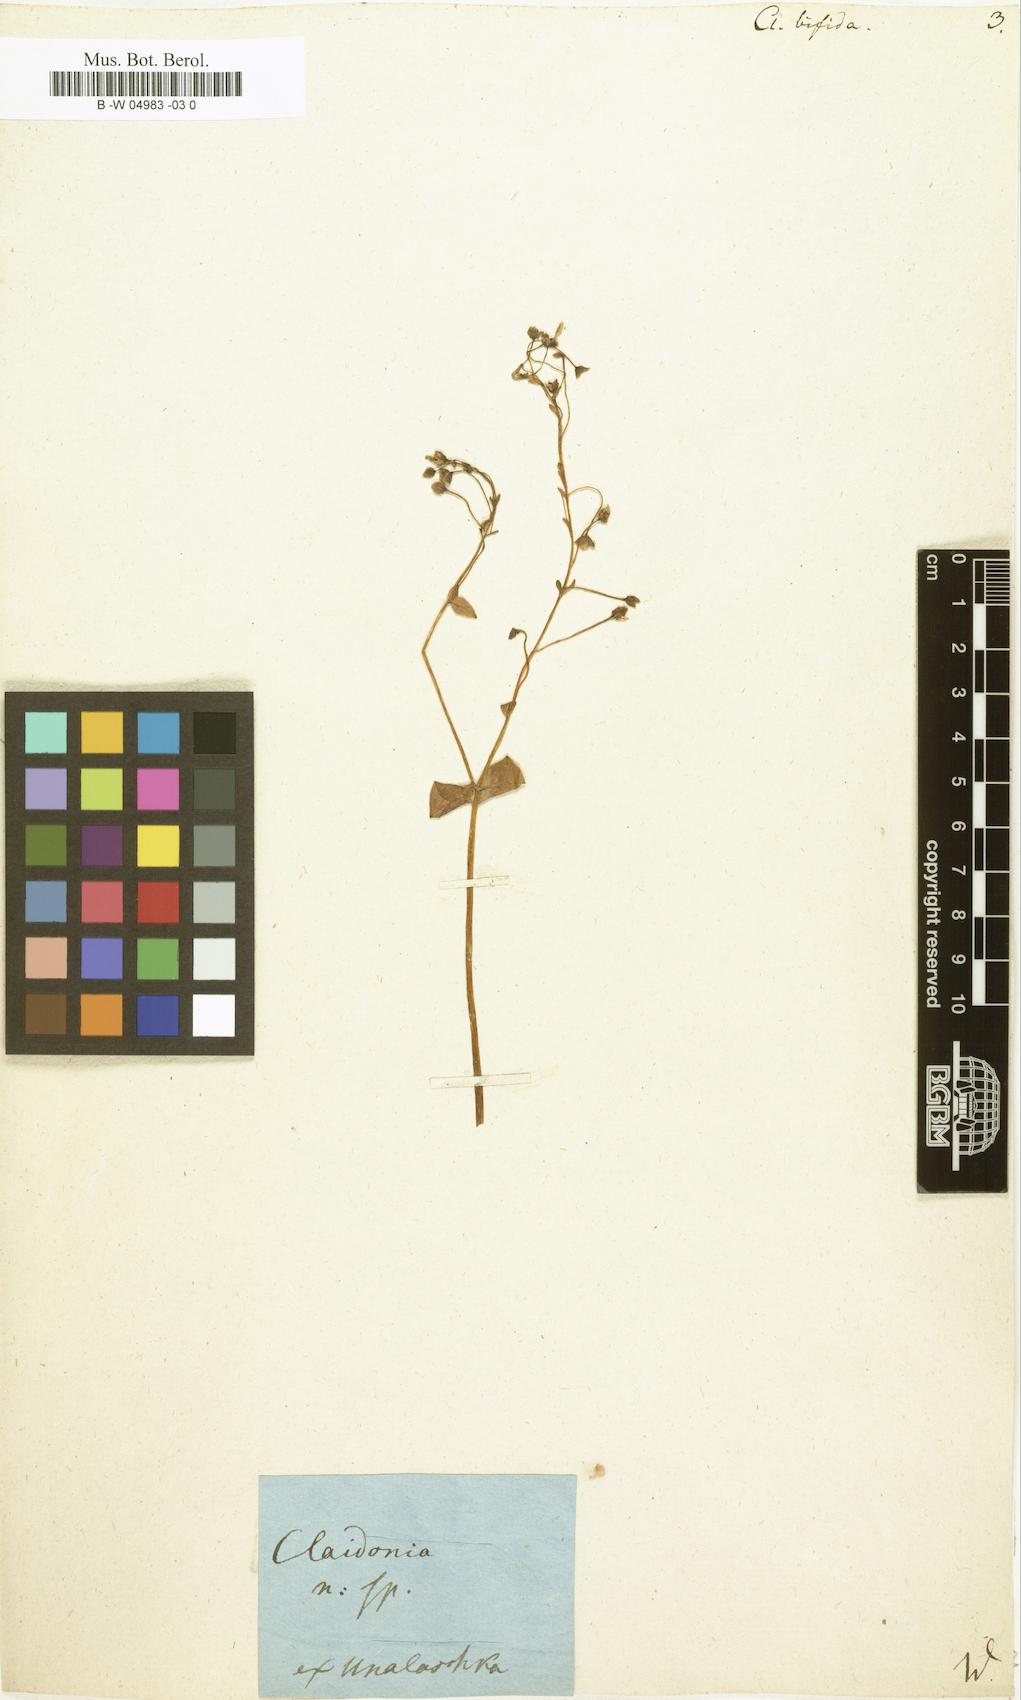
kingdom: Plantae
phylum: Tracheophyta
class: Magnoliopsida
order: Caryophyllales
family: Montiaceae
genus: Claytonia
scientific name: Claytonia sibirica
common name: Pink purslane
